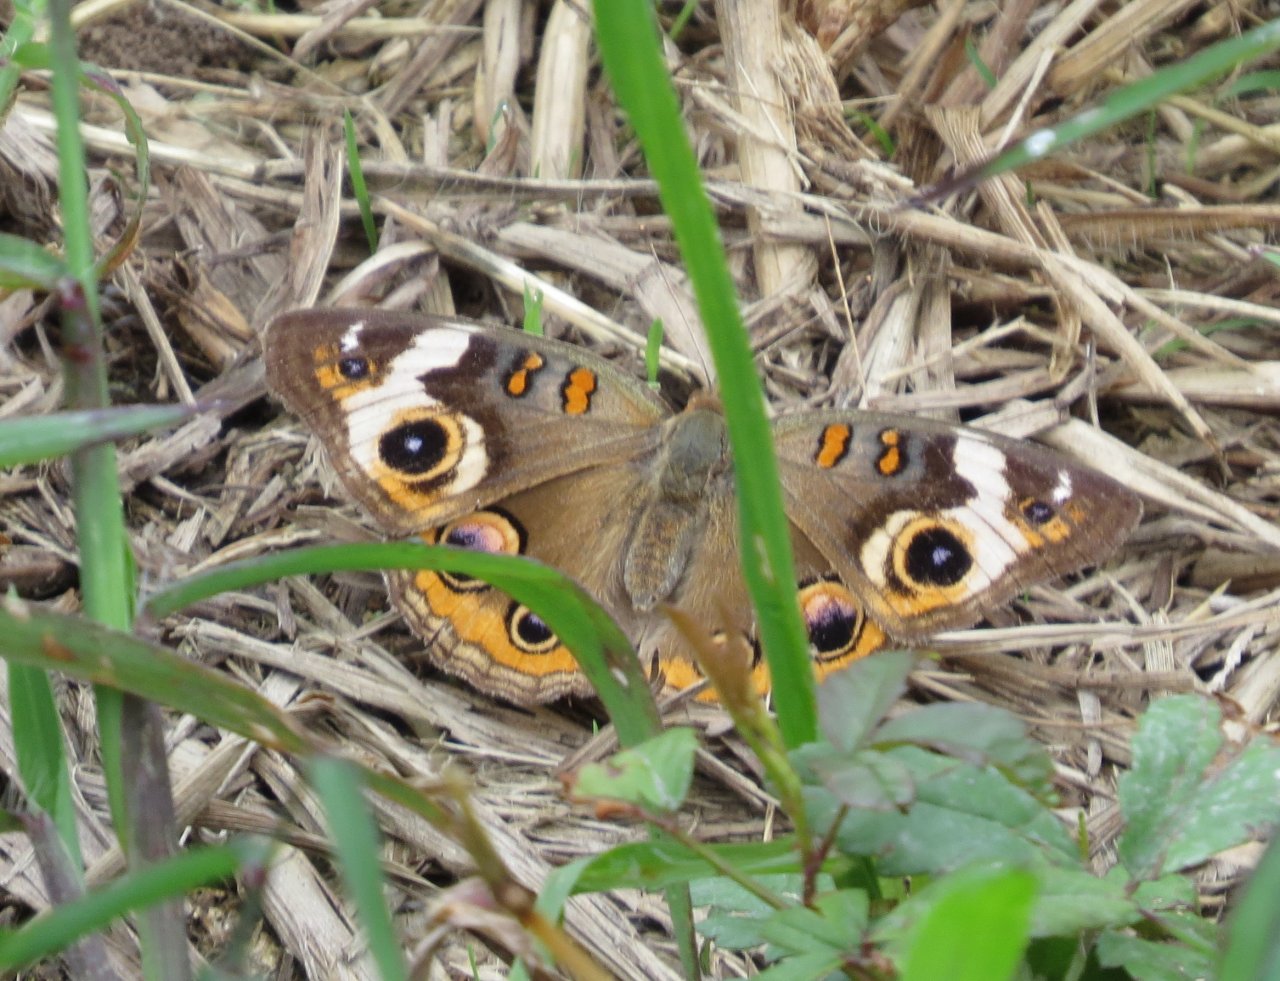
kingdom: Animalia
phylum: Arthropoda
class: Insecta
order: Lepidoptera
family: Nymphalidae
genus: Junonia
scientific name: Junonia coenia
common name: Common Buckeye
